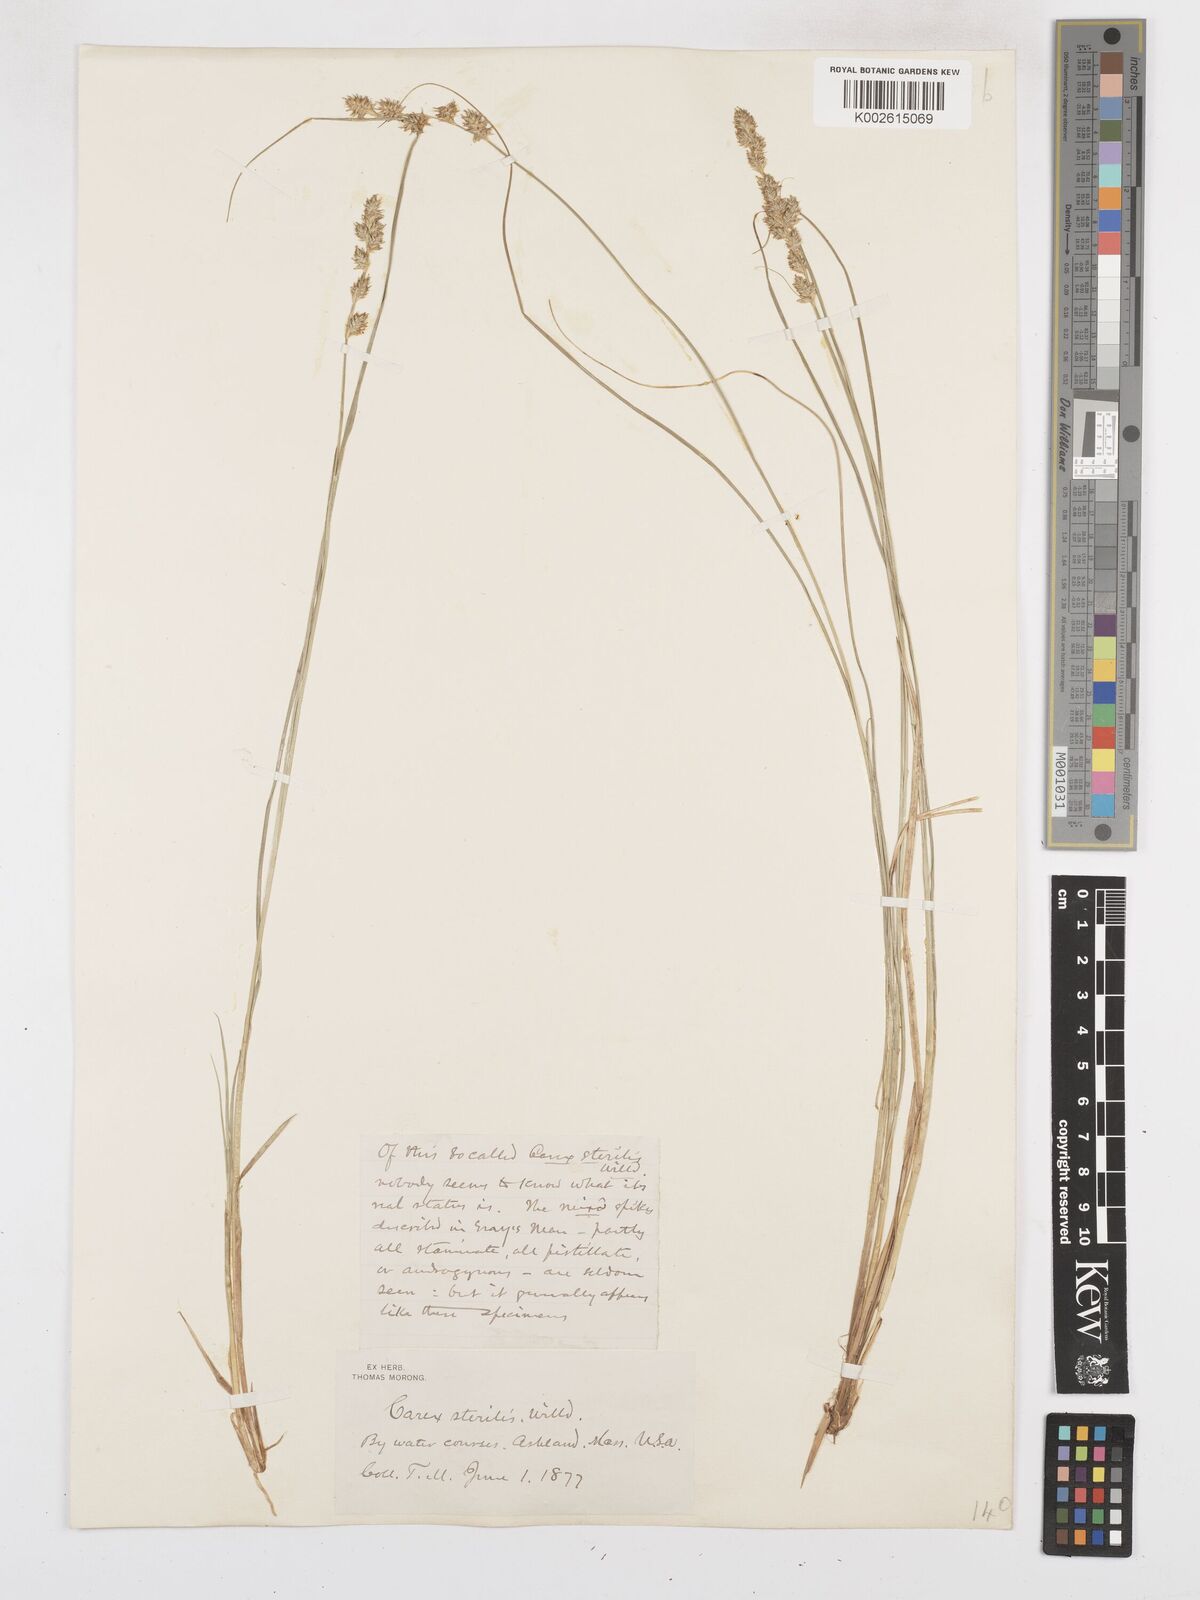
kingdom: Plantae
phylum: Tracheophyta
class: Liliopsida
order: Poales
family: Cyperaceae
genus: Carex
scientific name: Carex sterilis
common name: Dioecious sedge
